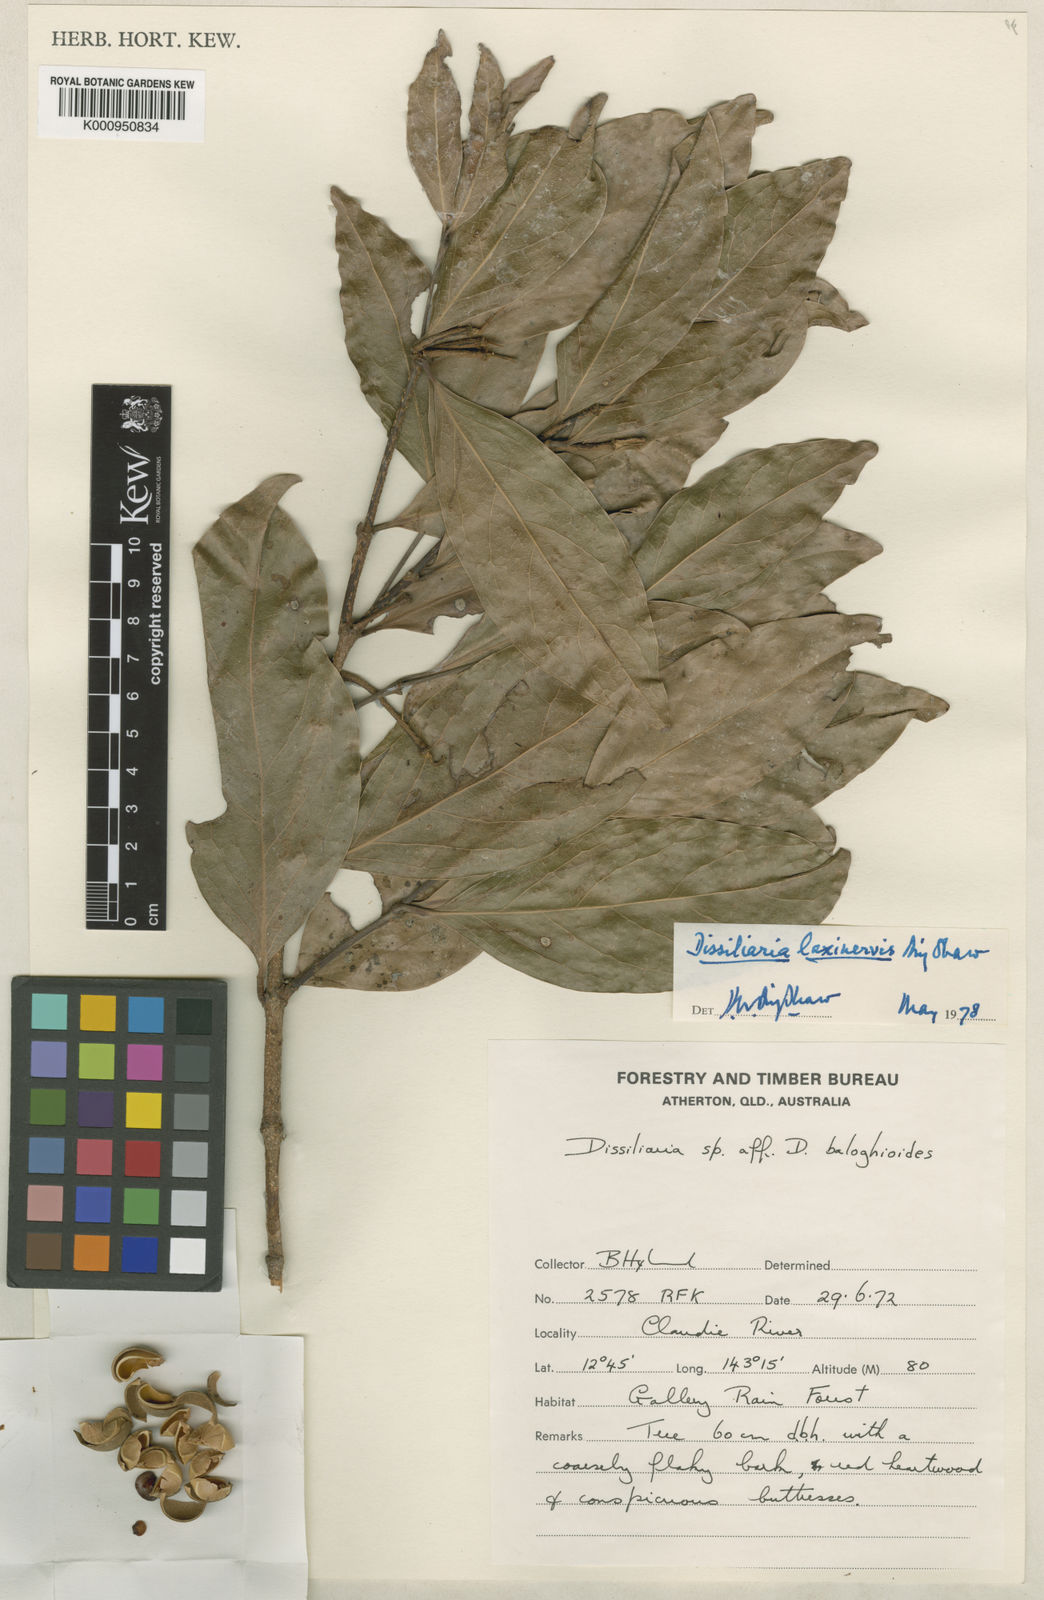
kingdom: Plantae
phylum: Tracheophyta
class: Magnoliopsida
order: Malpighiales
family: Picrodendraceae
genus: Dissiliaria
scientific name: Dissiliaria laxinervis
